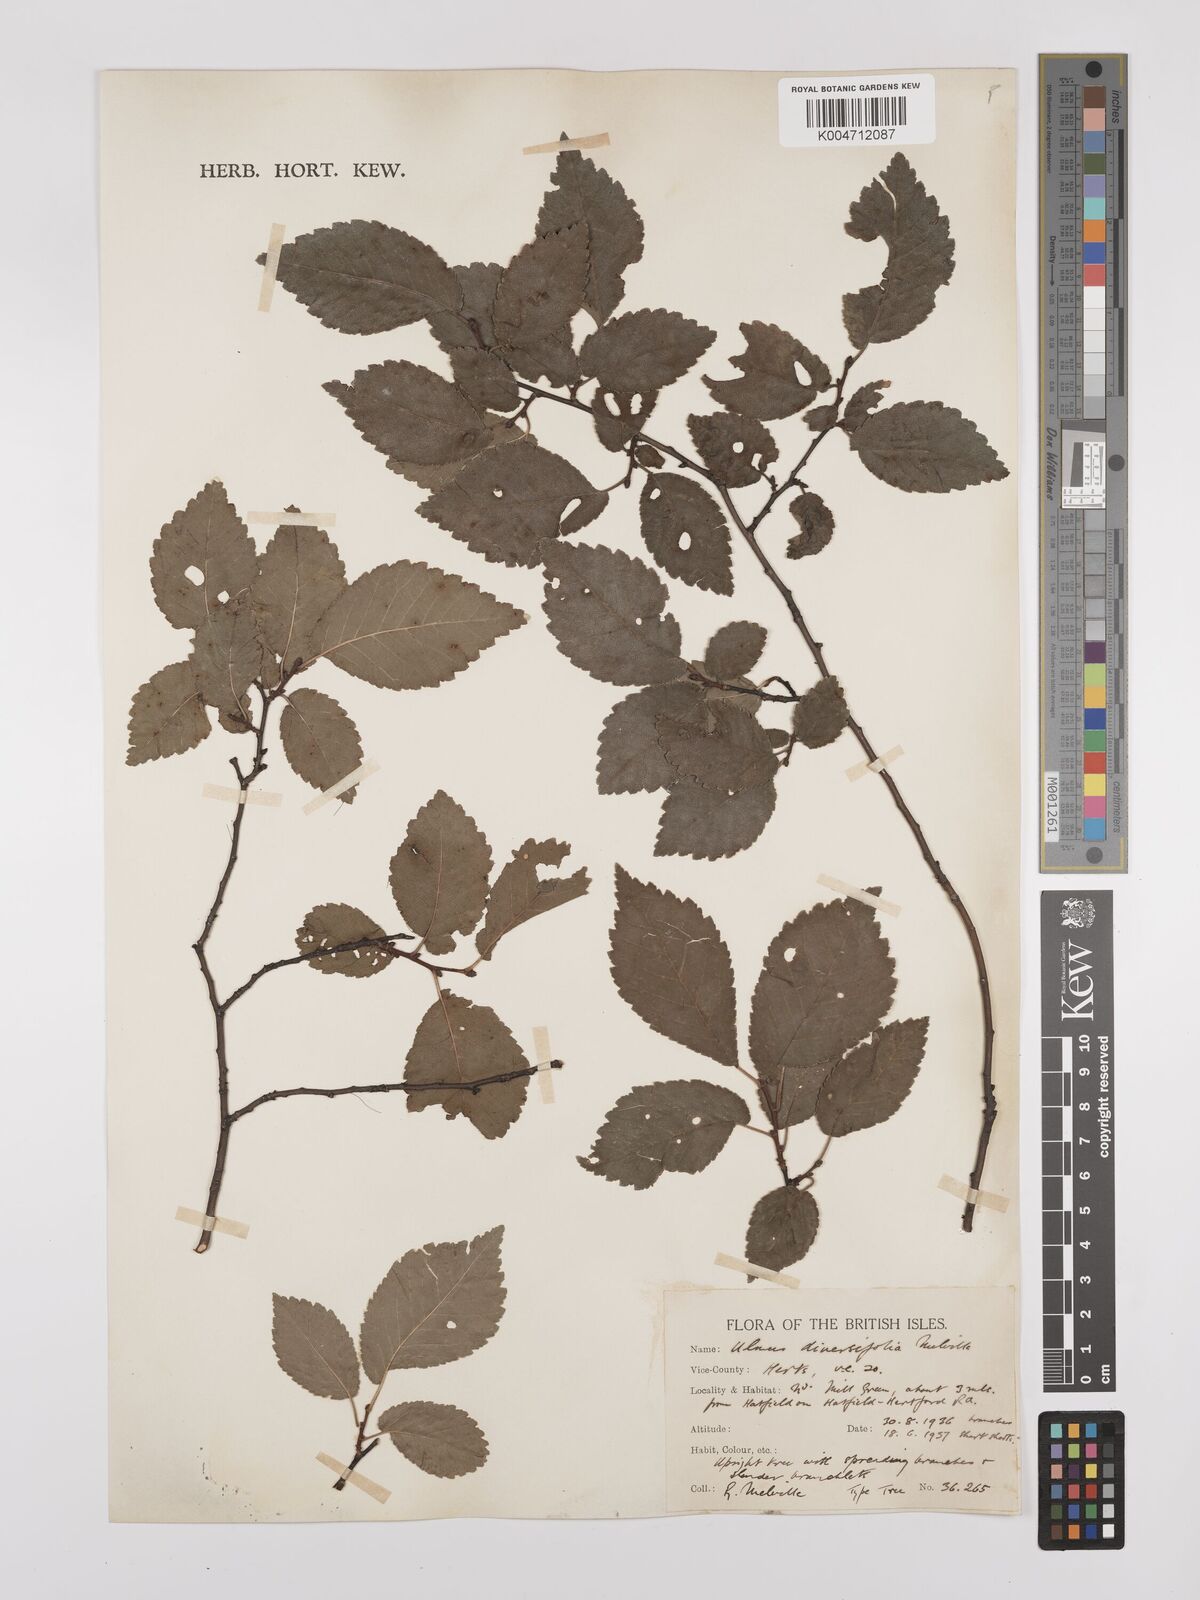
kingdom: Plantae
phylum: Tracheophyta
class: Magnoliopsida
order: Rosales
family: Ulmaceae
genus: Ulmus
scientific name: Ulmus minor
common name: Small-leaved elm
